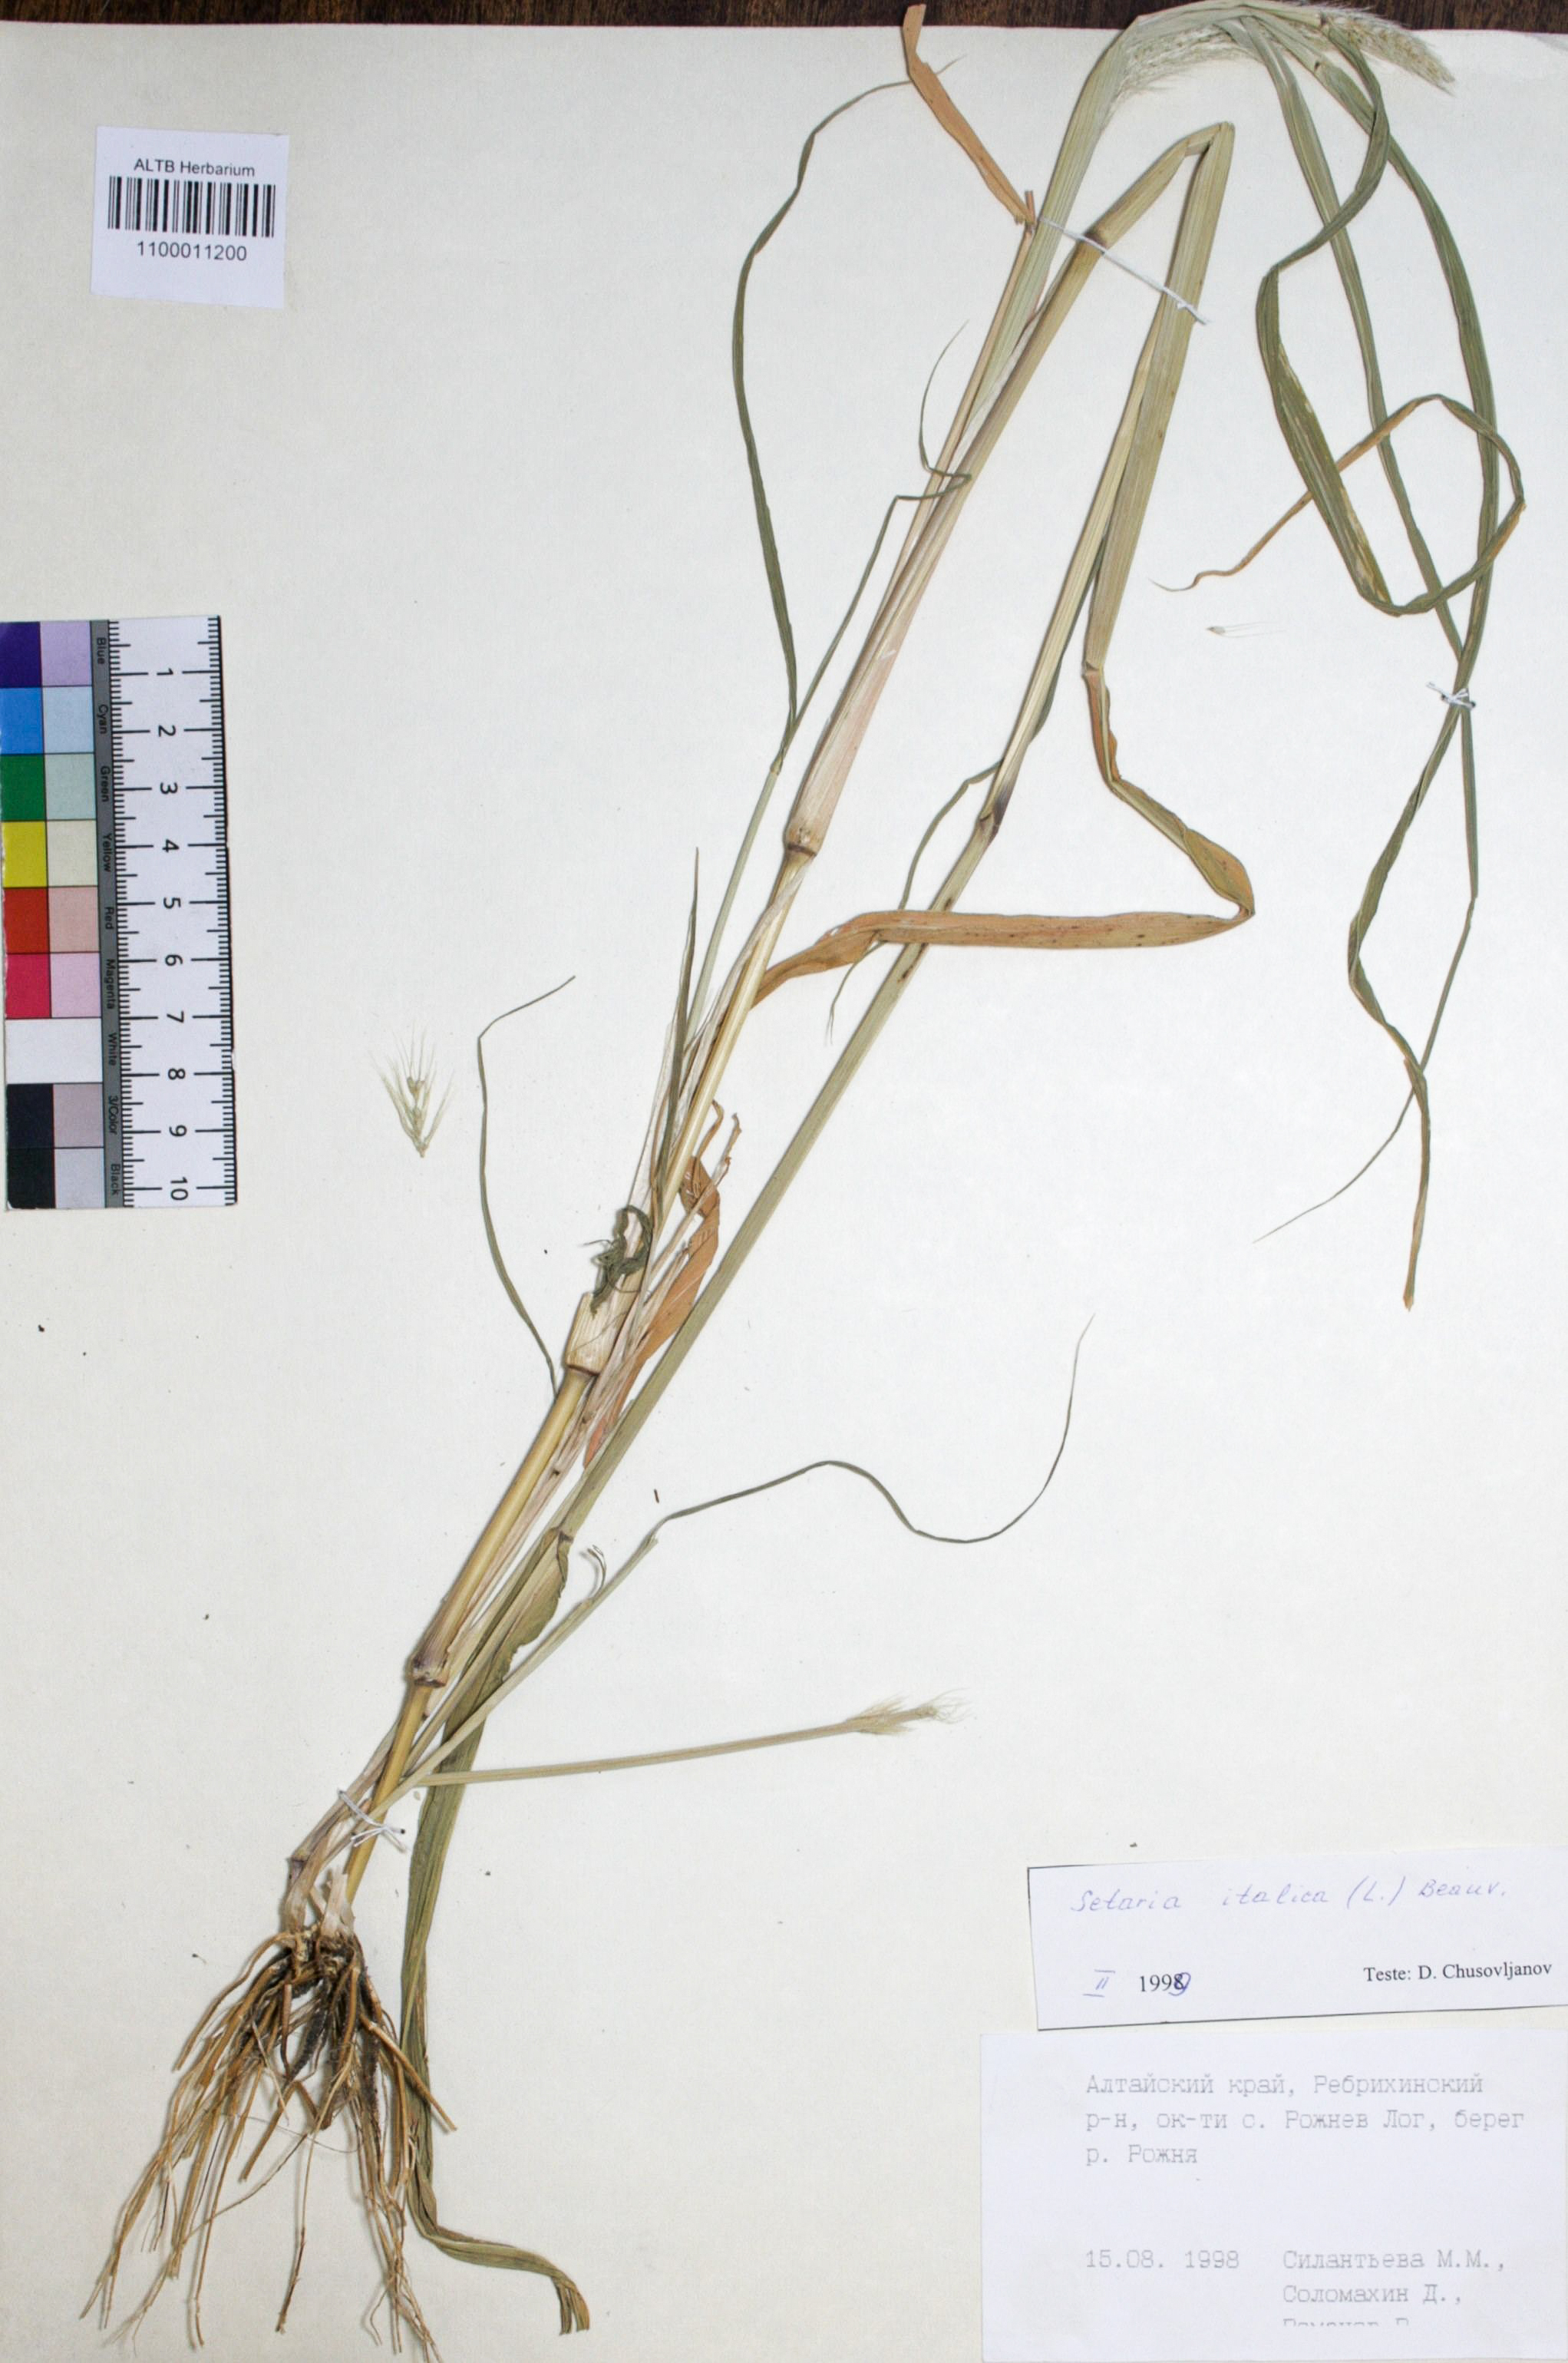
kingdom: Plantae
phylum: Tracheophyta
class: Liliopsida
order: Poales
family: Poaceae
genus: Setaria
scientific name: Setaria italica
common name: Foxtail bristle-grass
